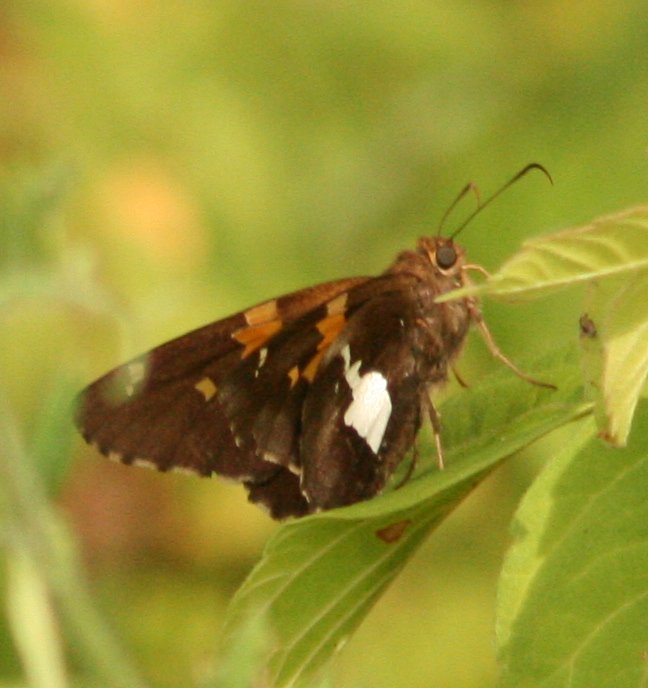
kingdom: Animalia
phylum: Arthropoda
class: Insecta
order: Lepidoptera
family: Hesperiidae
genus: Epargyreus
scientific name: Epargyreus clarus
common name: Silver-spotted Skipper
